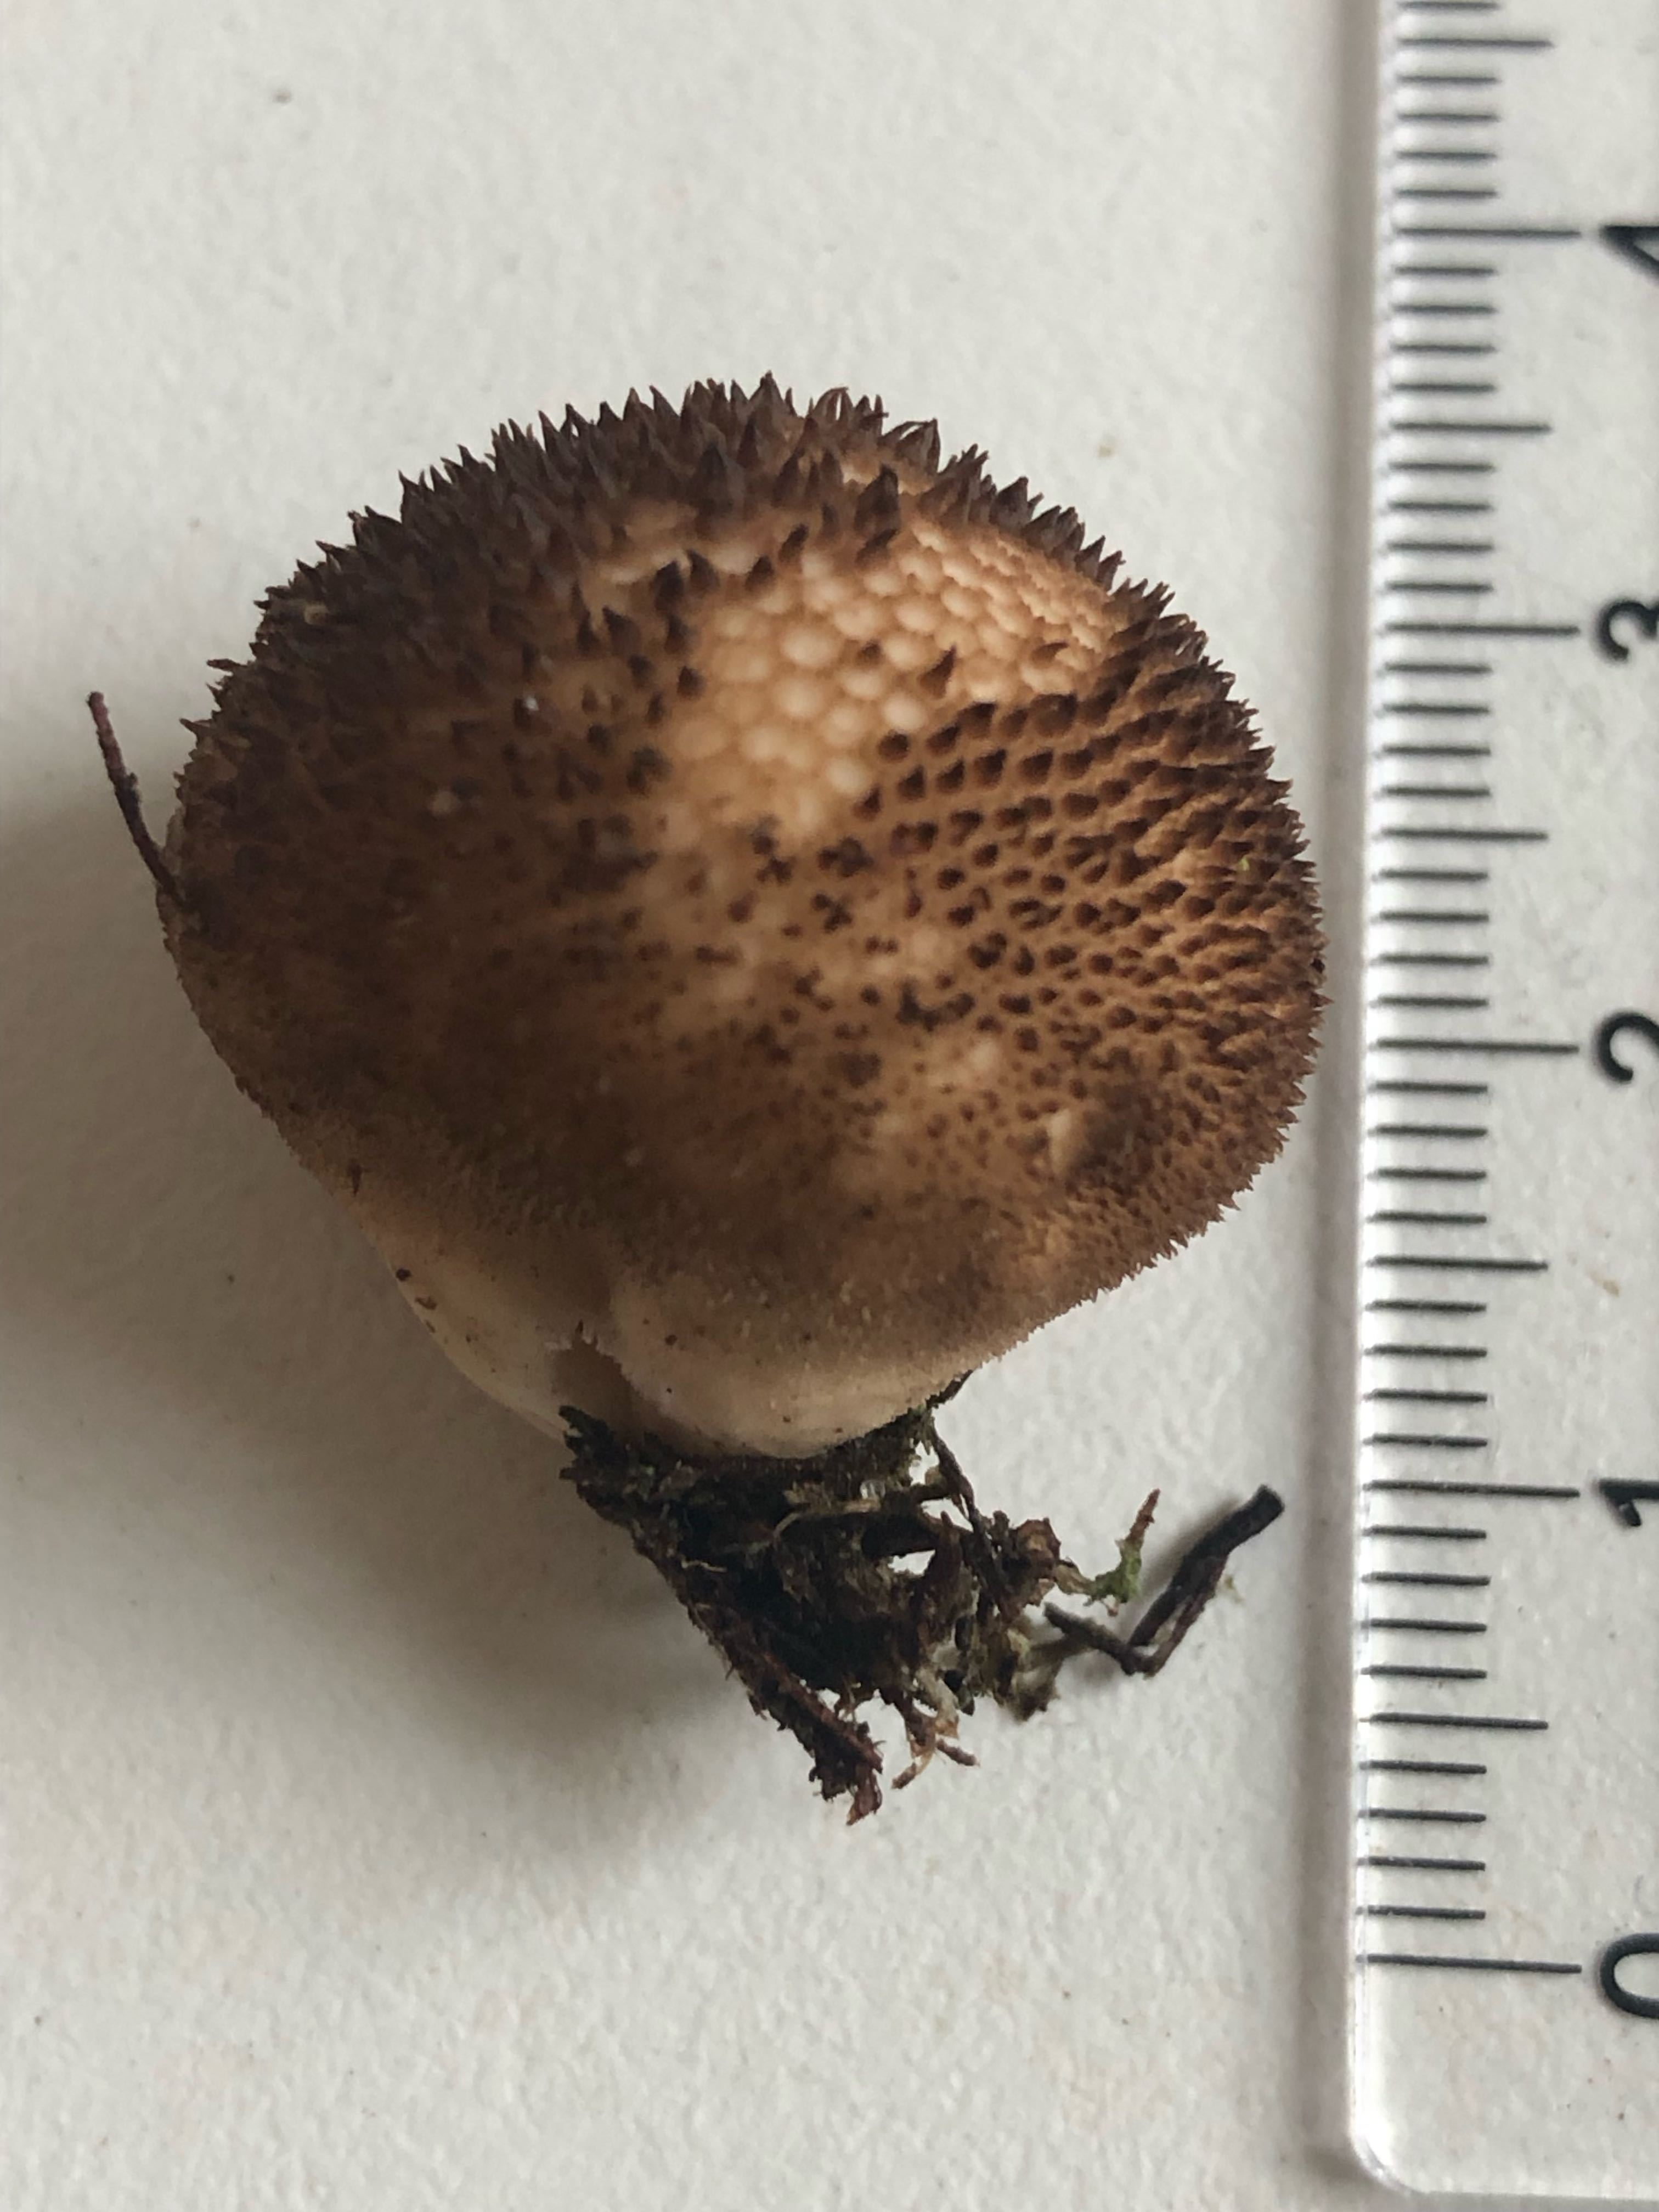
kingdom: Fungi
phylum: Basidiomycota
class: Agaricomycetes
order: Agaricales
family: Lycoperdaceae
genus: Lycoperdon
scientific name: Lycoperdon nigrescens
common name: sortagtig støvbold
